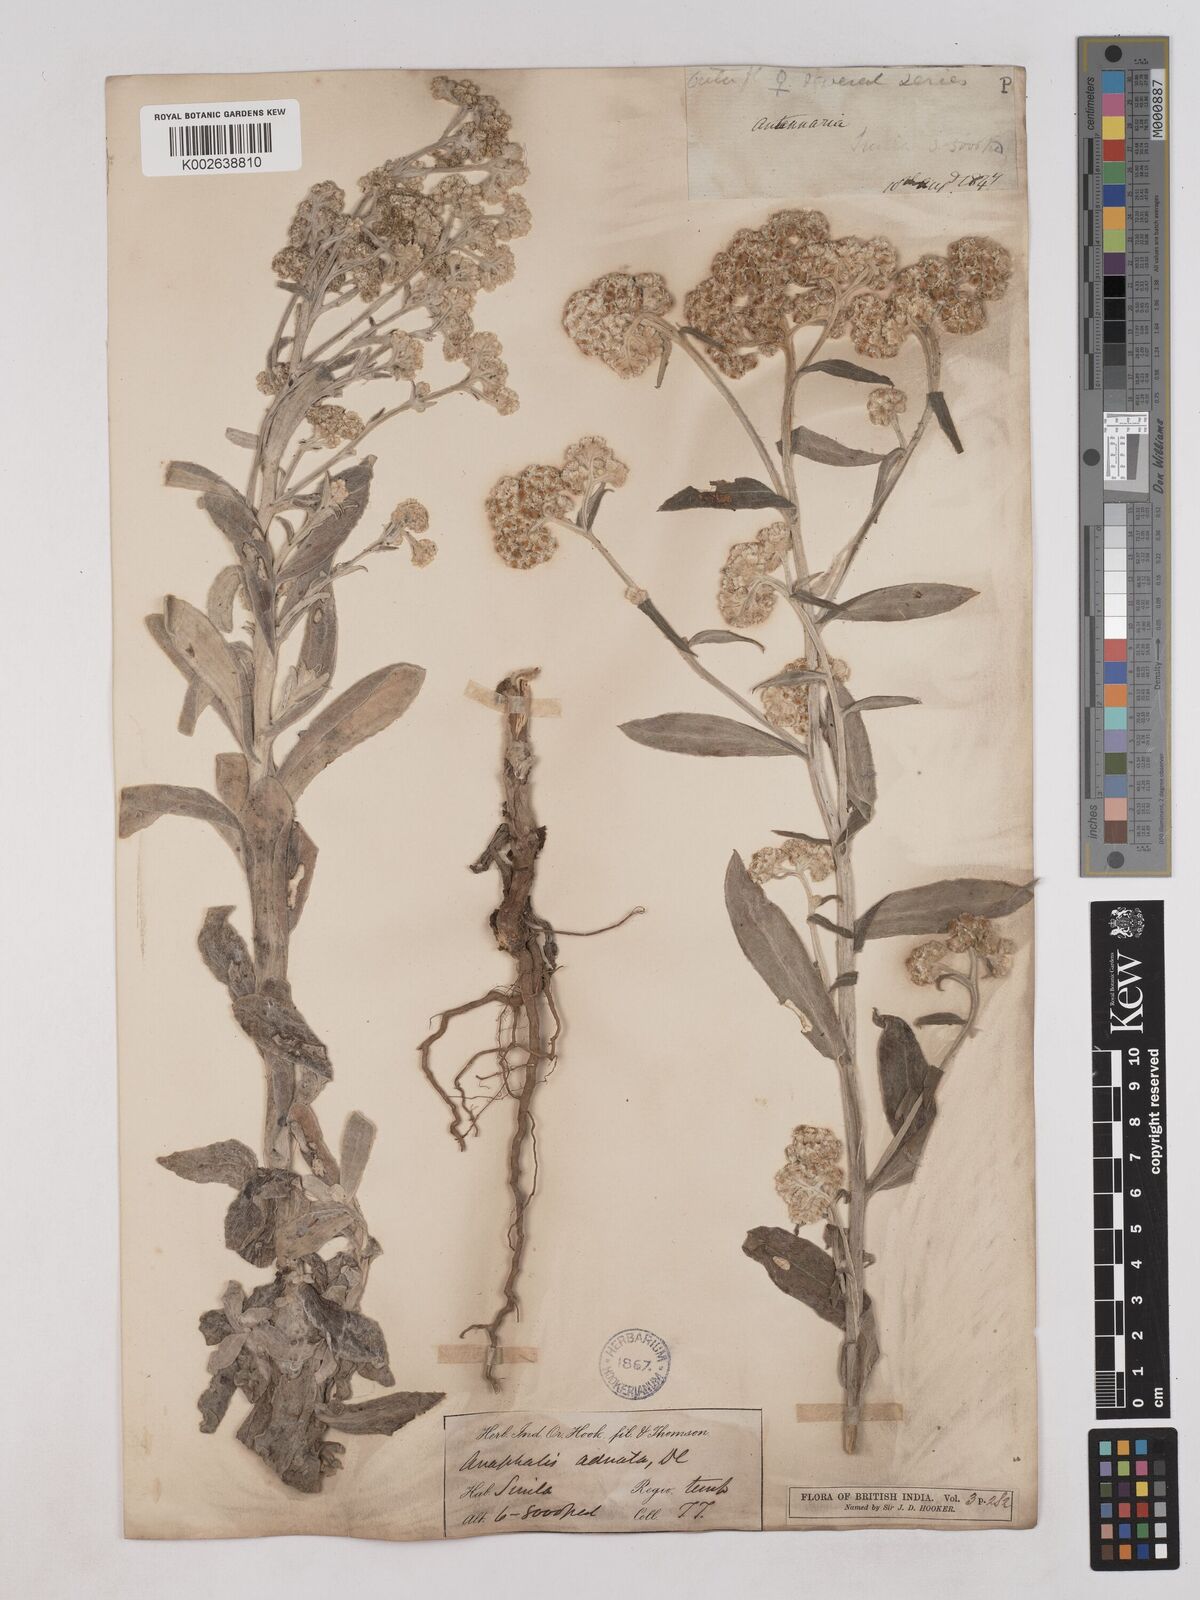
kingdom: Plantae
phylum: Tracheophyta
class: Magnoliopsida
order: Asterales
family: Asteraceae
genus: Pseudognaphalium
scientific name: Pseudognaphalium adnatum
